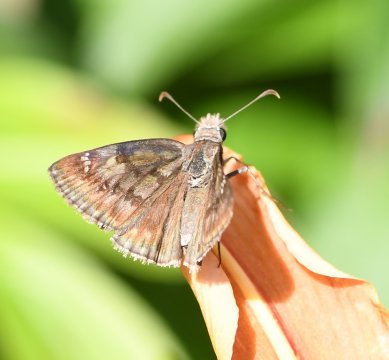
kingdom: Animalia
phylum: Arthropoda
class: Insecta
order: Lepidoptera
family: Hesperiidae
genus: Gesta
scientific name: Gesta
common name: Wild Indigo Duskywing
